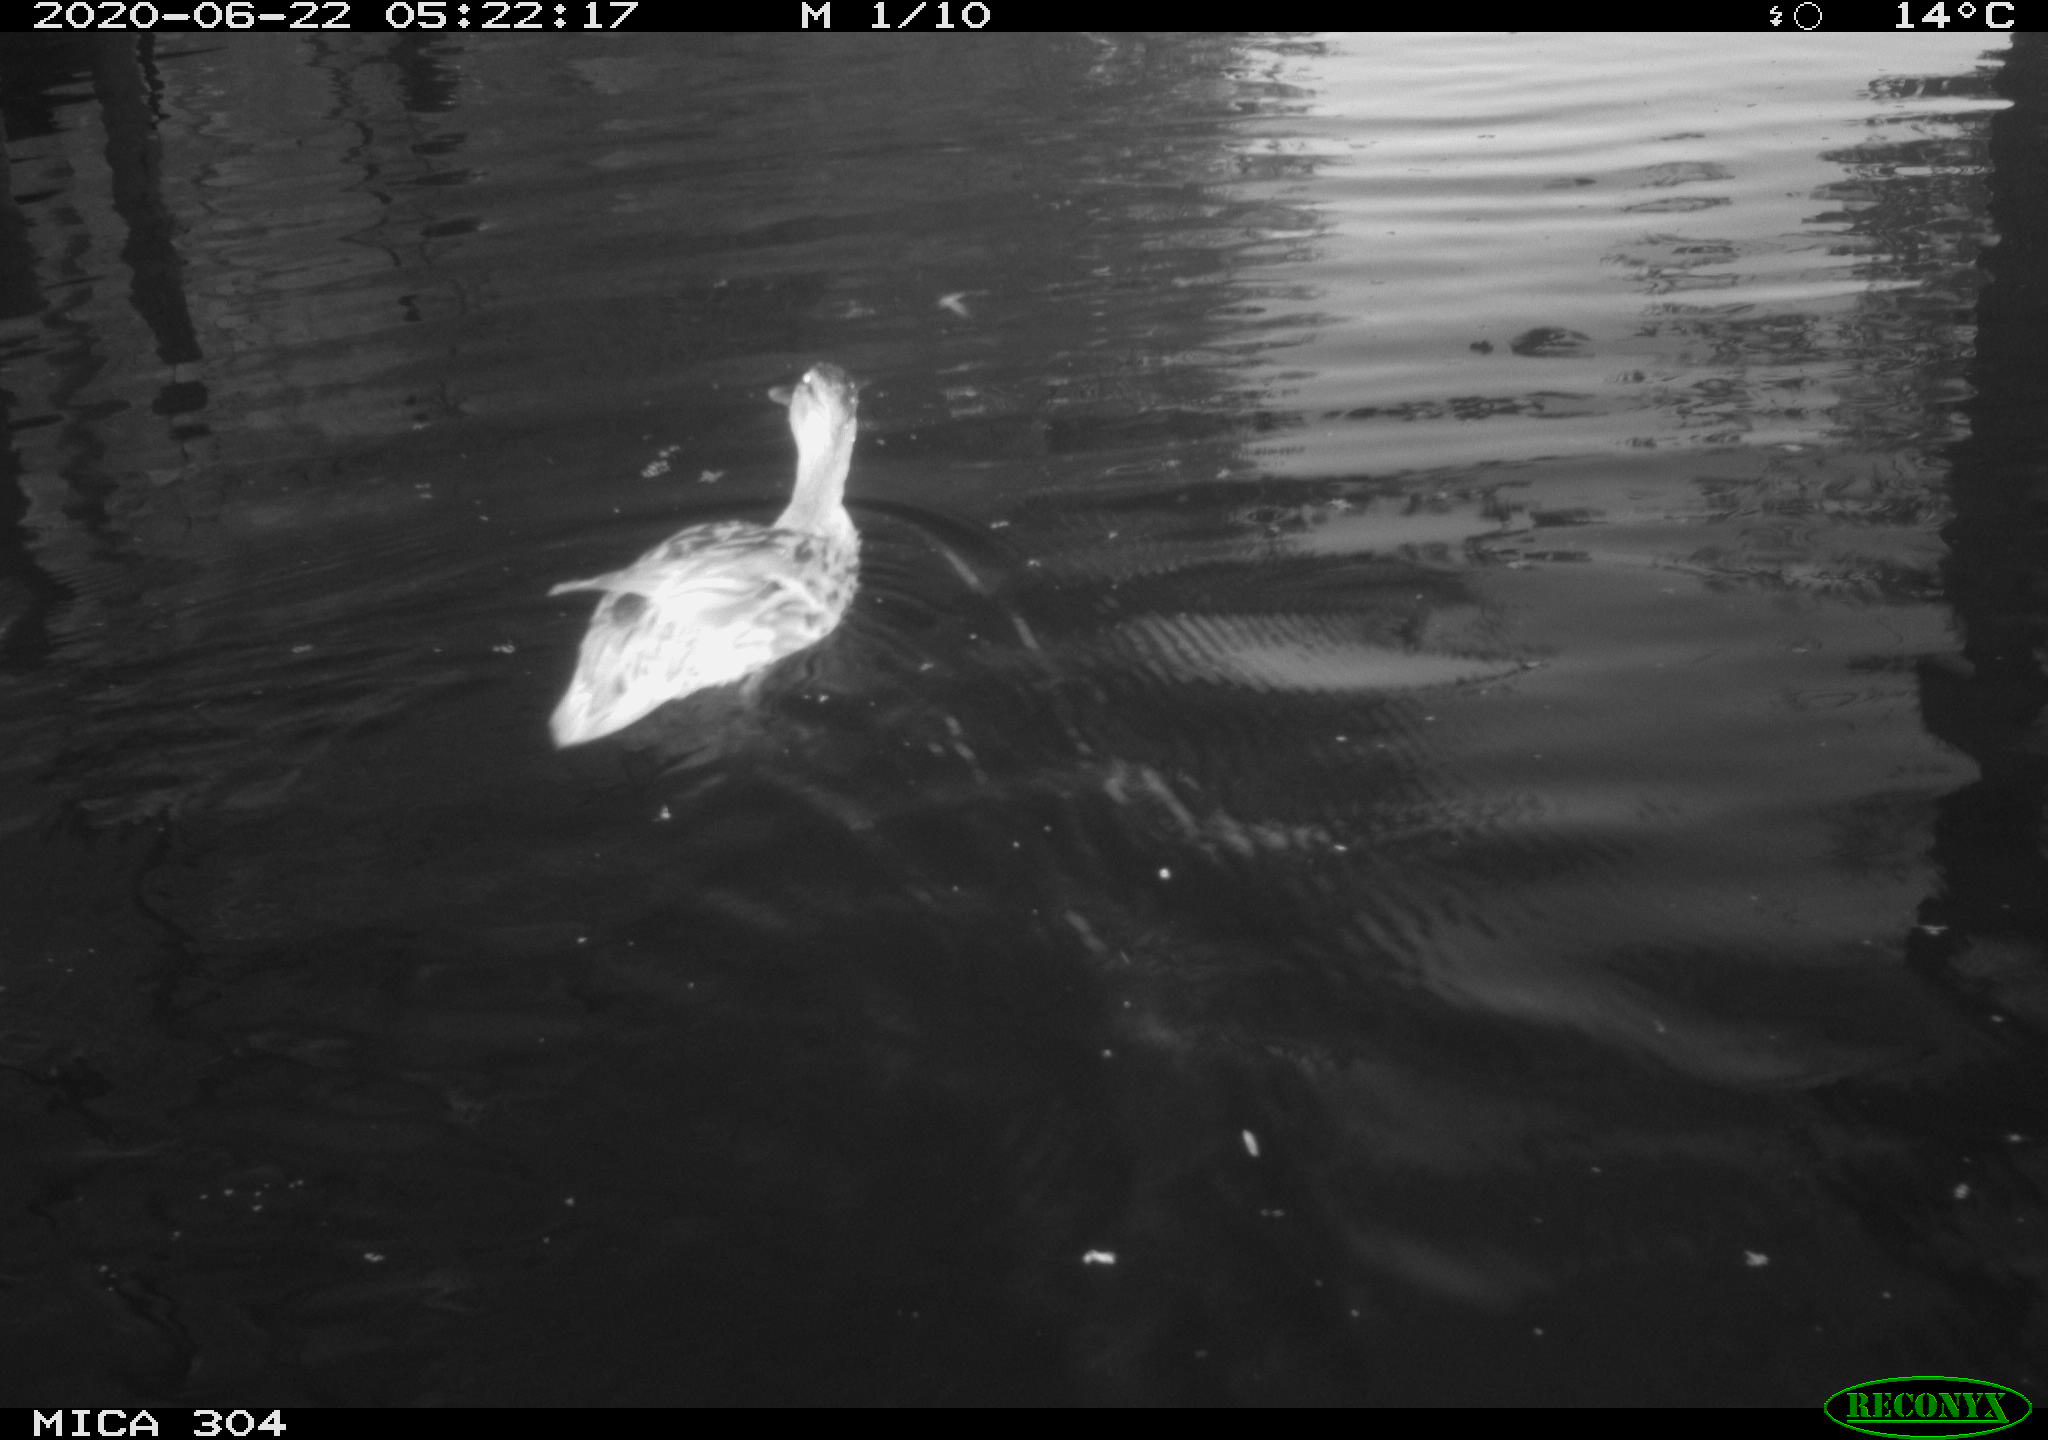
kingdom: Animalia
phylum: Chordata
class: Aves
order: Anseriformes
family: Anatidae
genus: Anas
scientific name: Anas platyrhynchos
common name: Mallard
